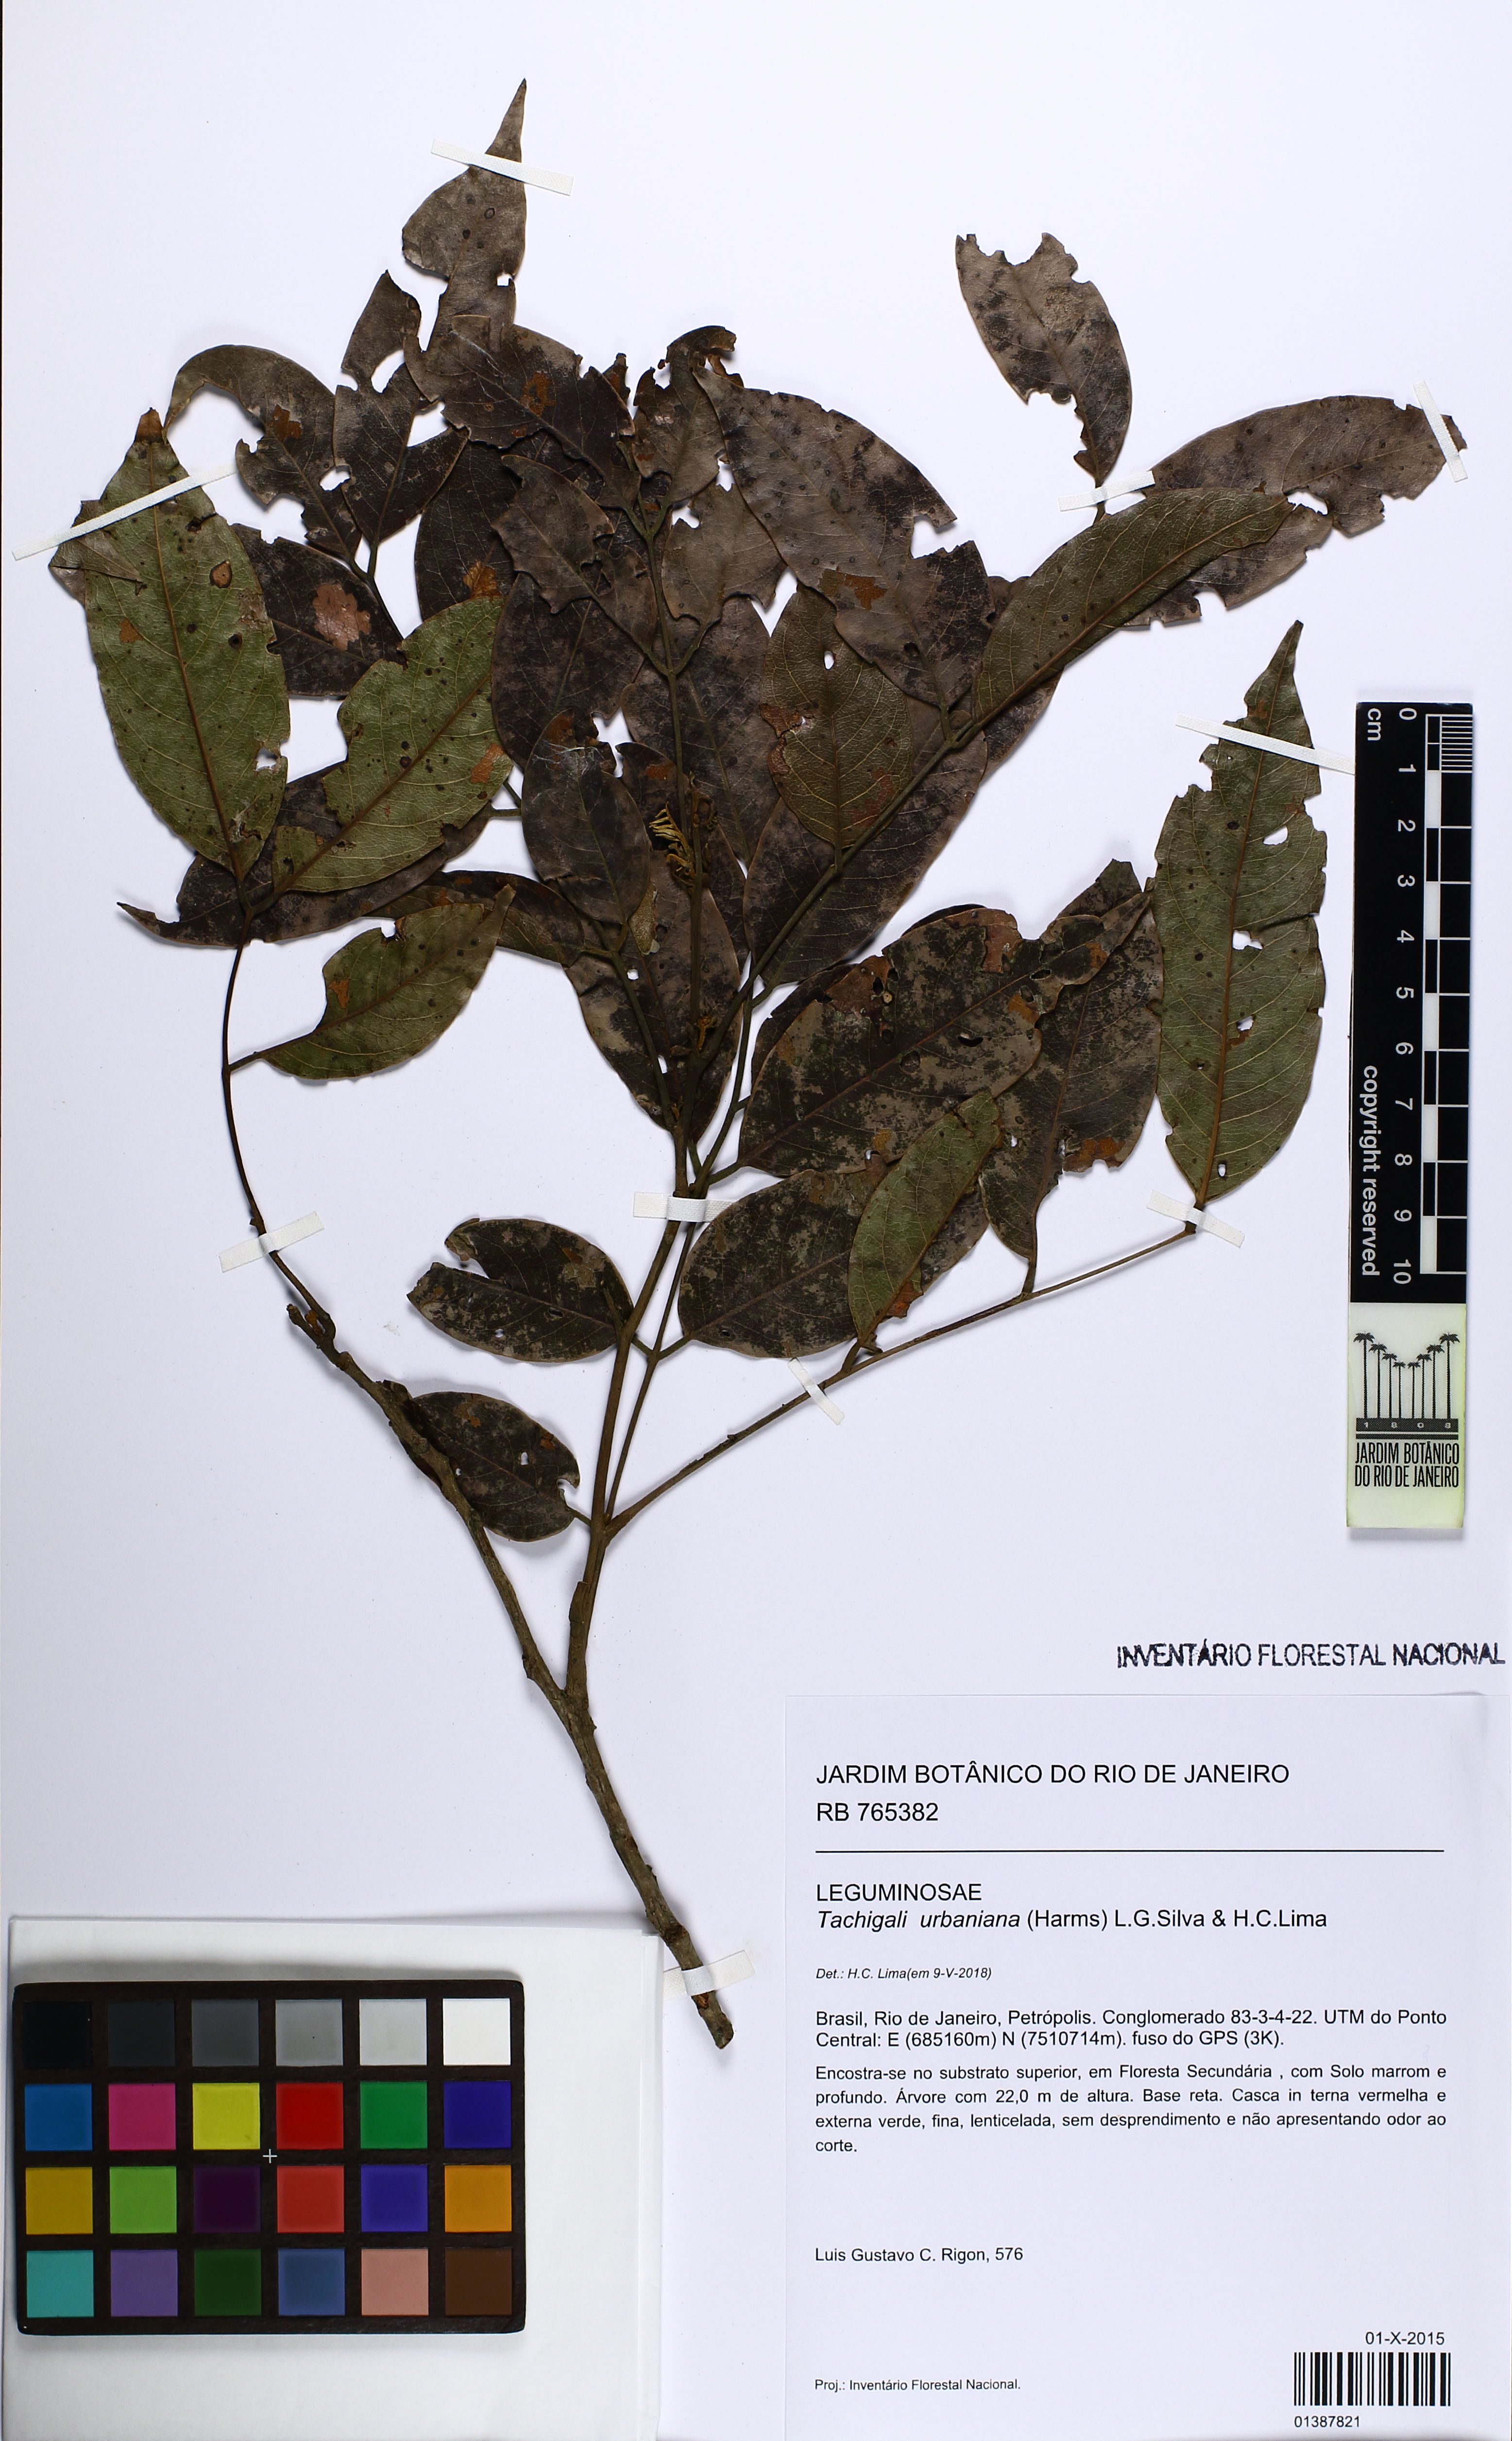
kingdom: Plantae
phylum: Tracheophyta
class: Magnoliopsida
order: Fabales
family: Fabaceae
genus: Tachigali
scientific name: Tachigali urbaniana
